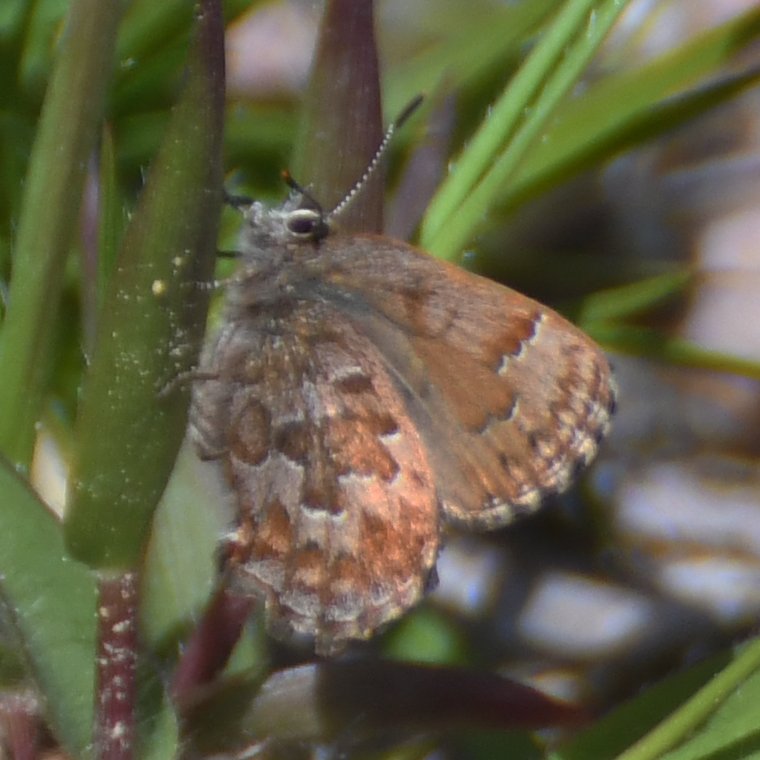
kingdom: Animalia
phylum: Arthropoda
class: Insecta
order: Lepidoptera
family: Lycaenidae
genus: Incisalia
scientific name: Incisalia niphon
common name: Eastern Pine Elfin
